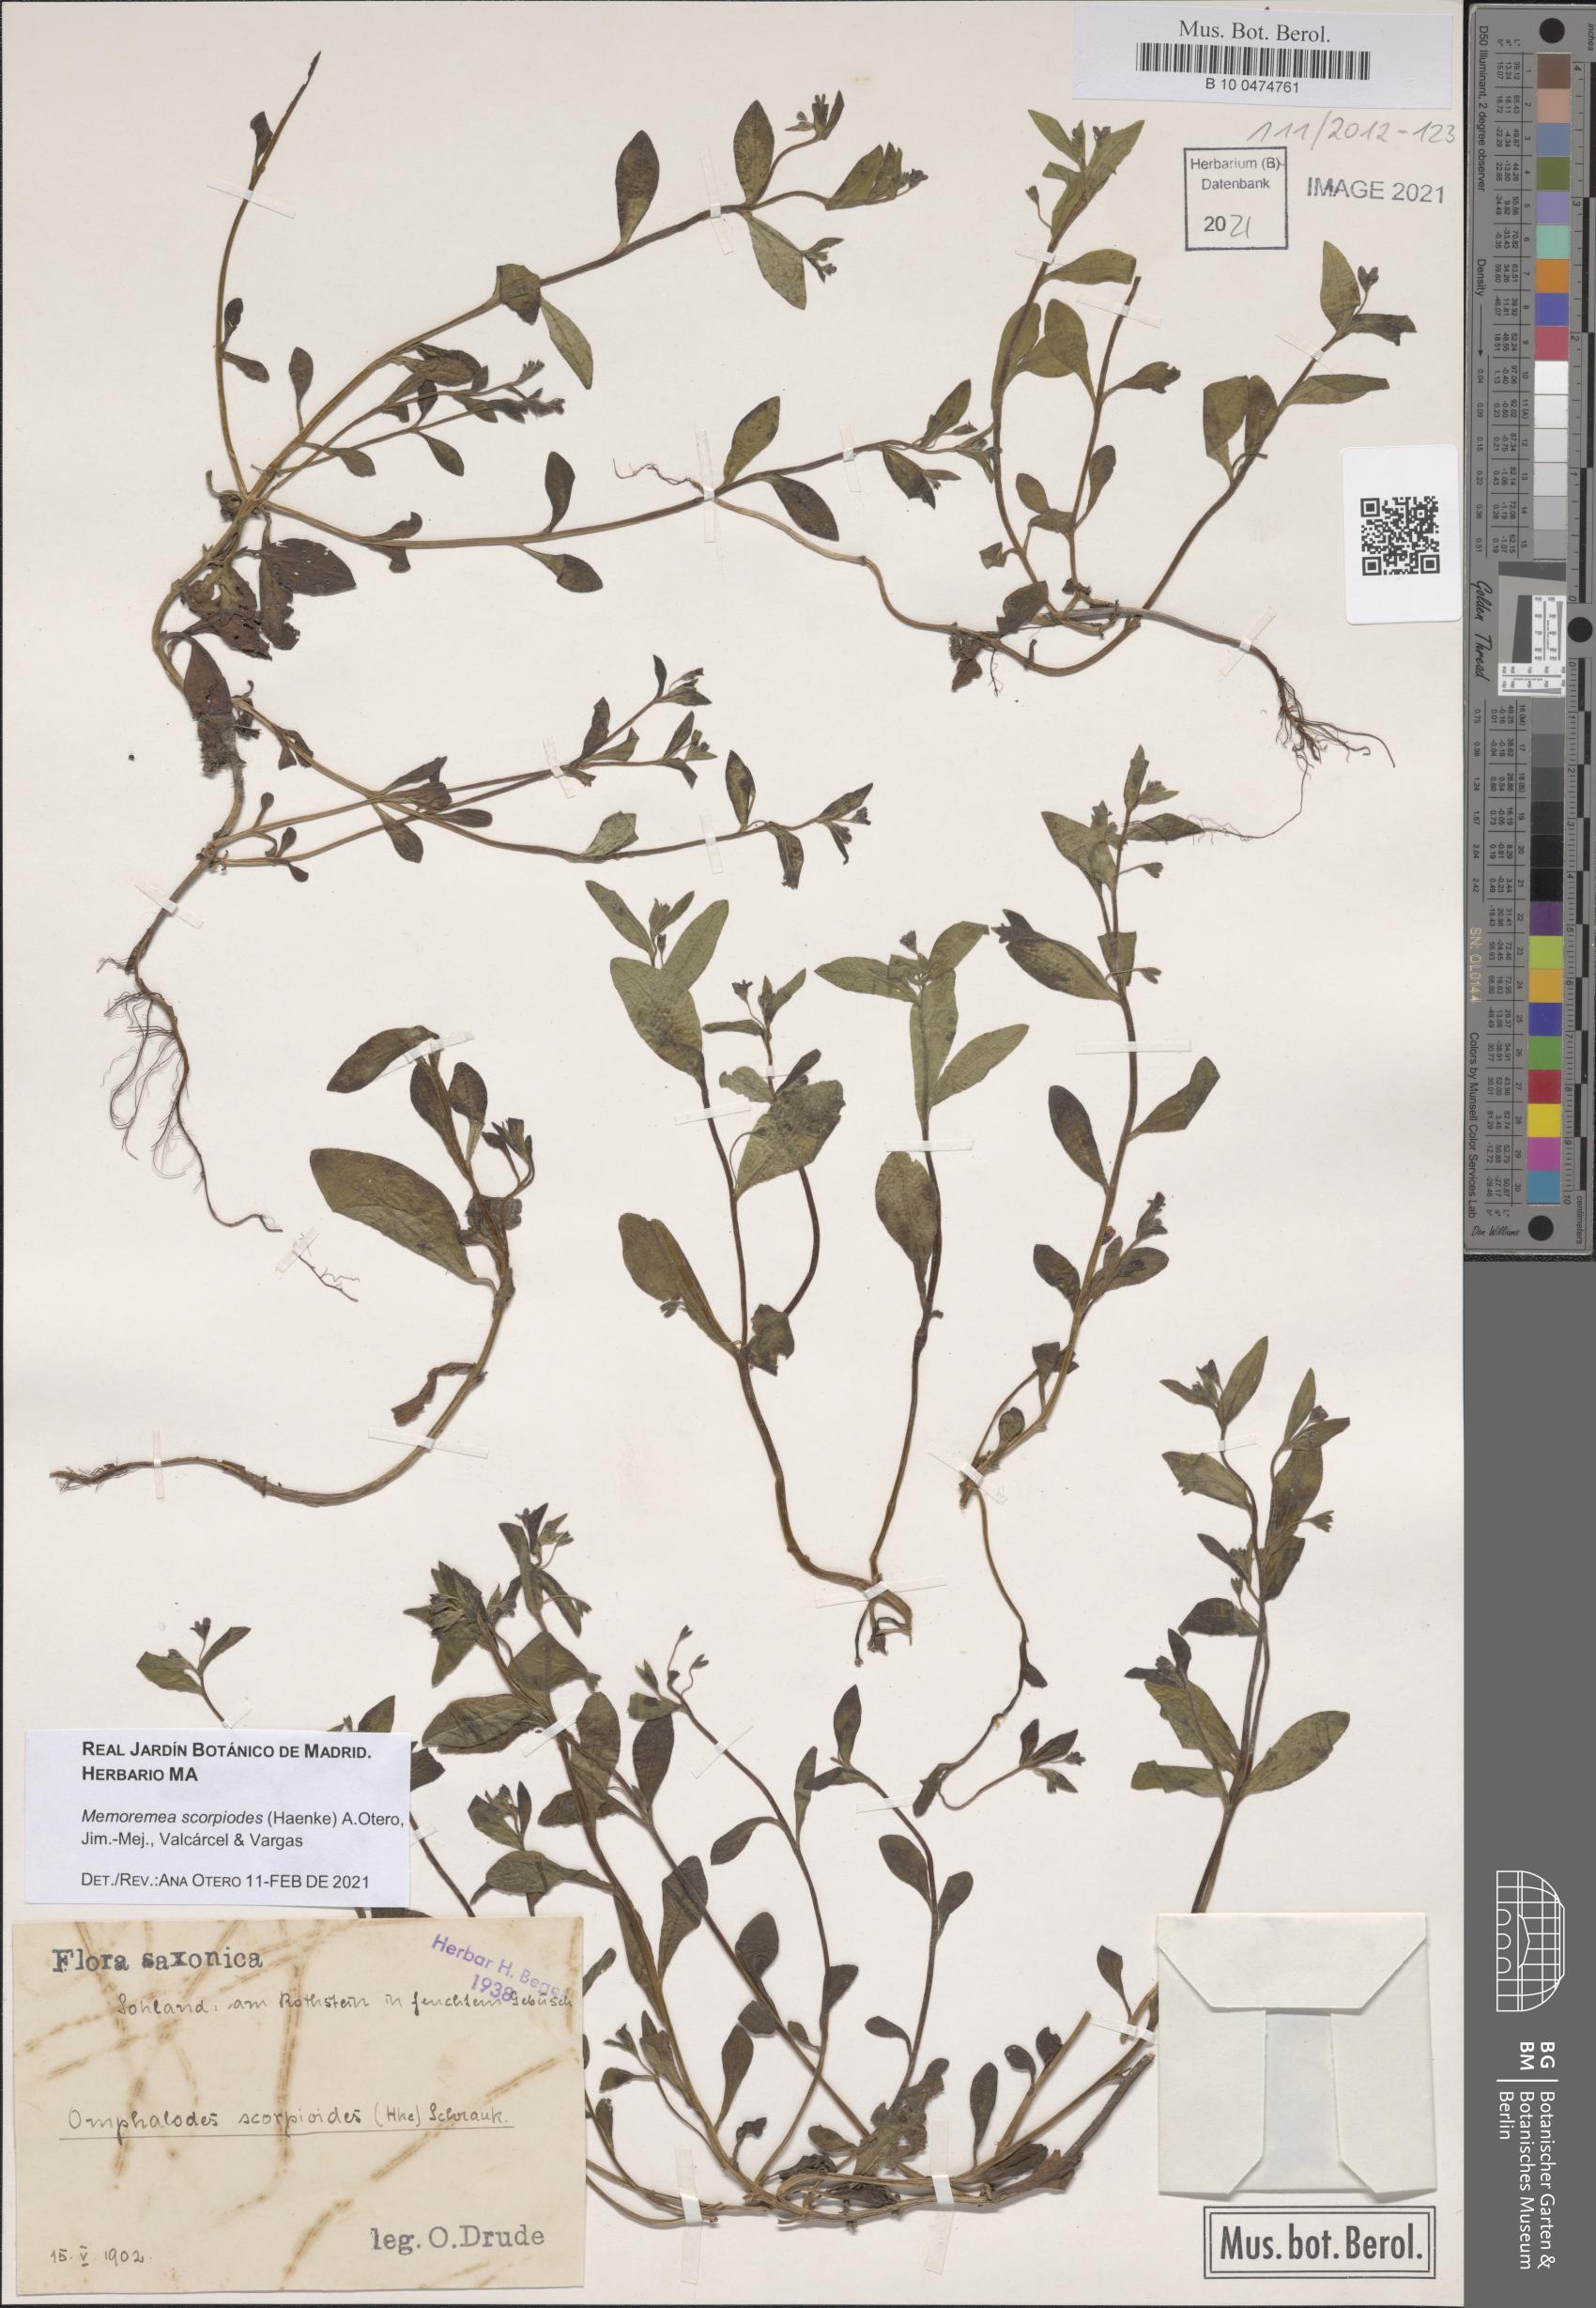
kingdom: Plantae
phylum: Tracheophyta
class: Magnoliopsida
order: Boraginales
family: Boraginaceae
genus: Memoremea
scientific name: Memoremea scorpioides
